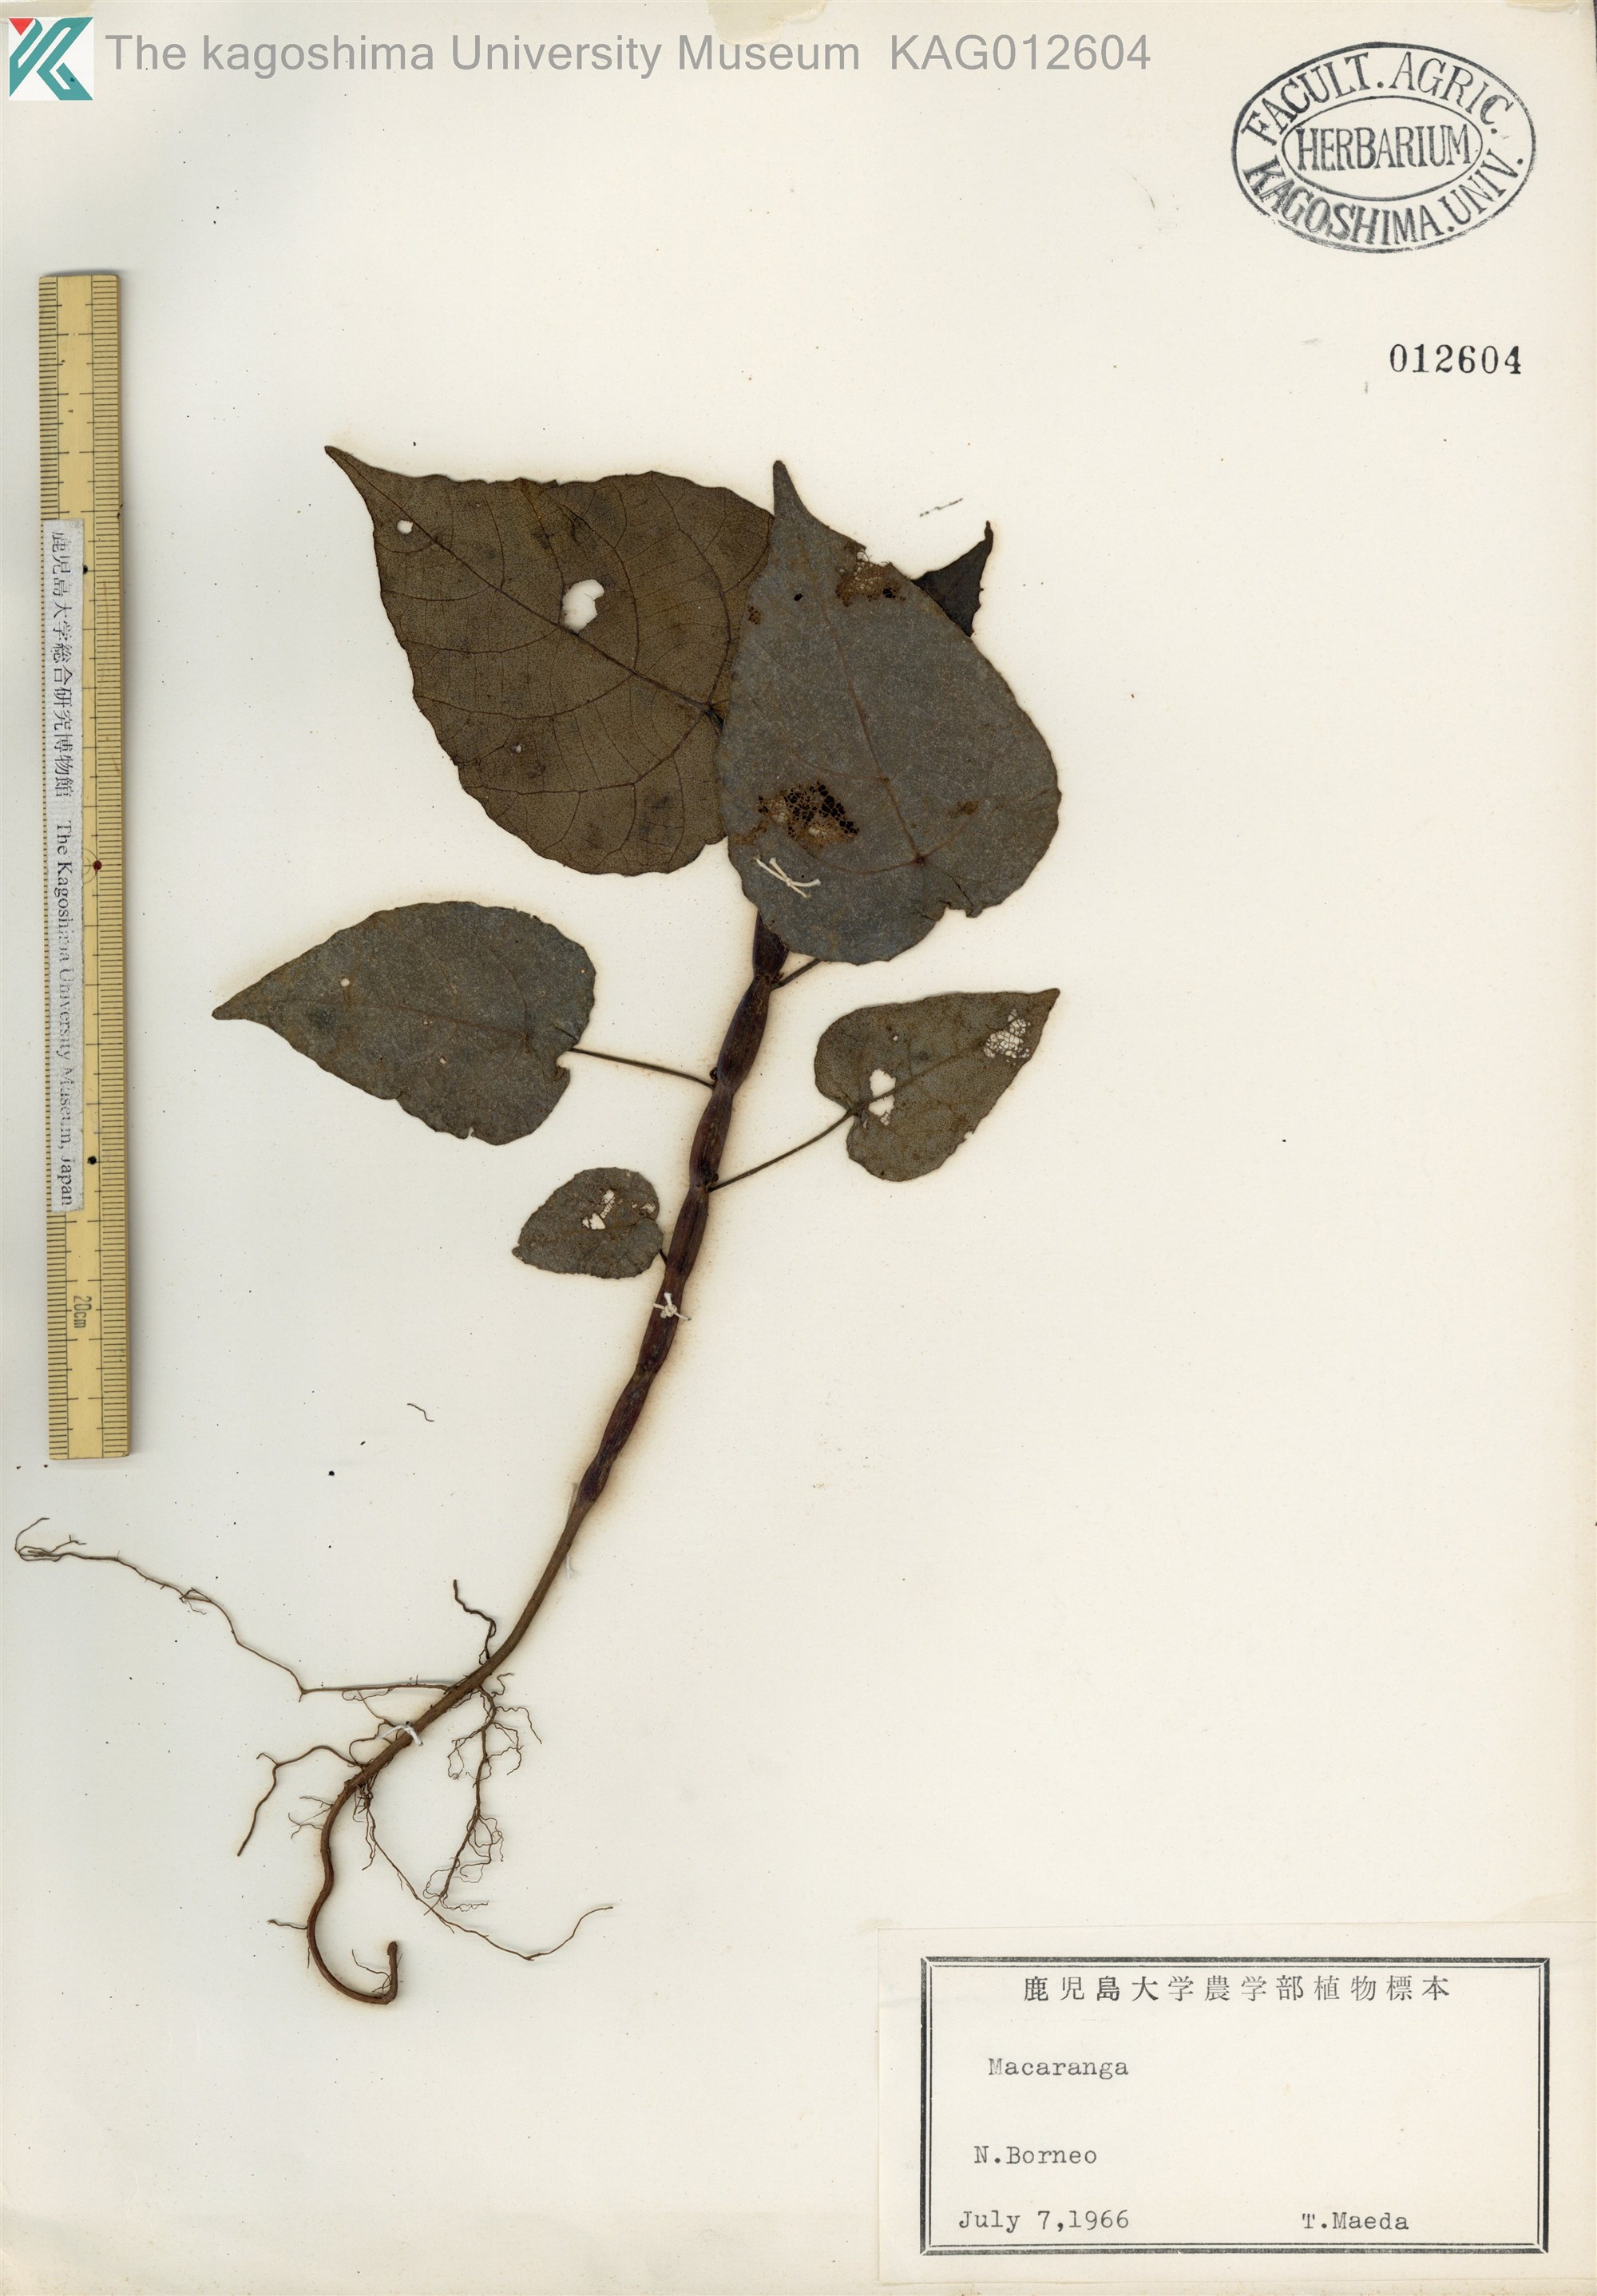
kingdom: Plantae
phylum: Tracheophyta
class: Magnoliopsida
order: Malpighiales
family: Euphorbiaceae
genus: Macaranga
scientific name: Macaranga
